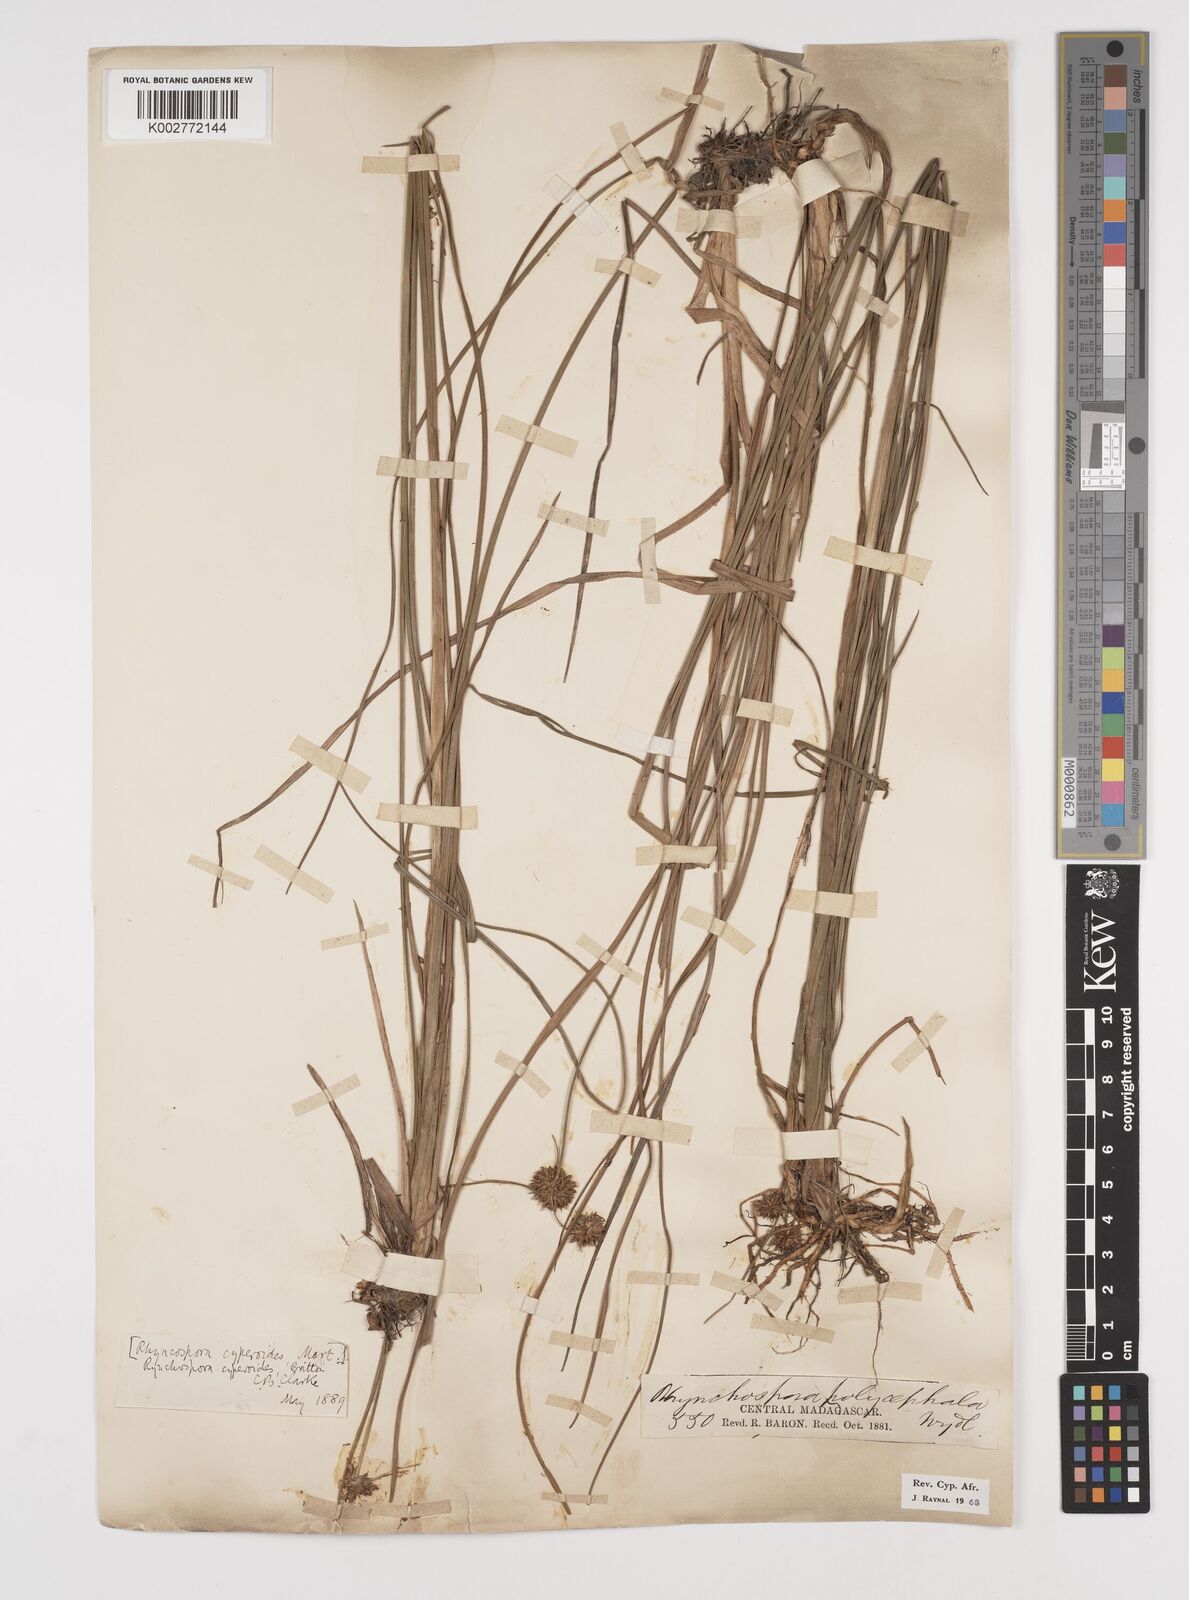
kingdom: Plantae
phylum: Tracheophyta
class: Liliopsida
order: Poales
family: Cyperaceae
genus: Rhynchospora
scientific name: Rhynchospora holoschoenoides
